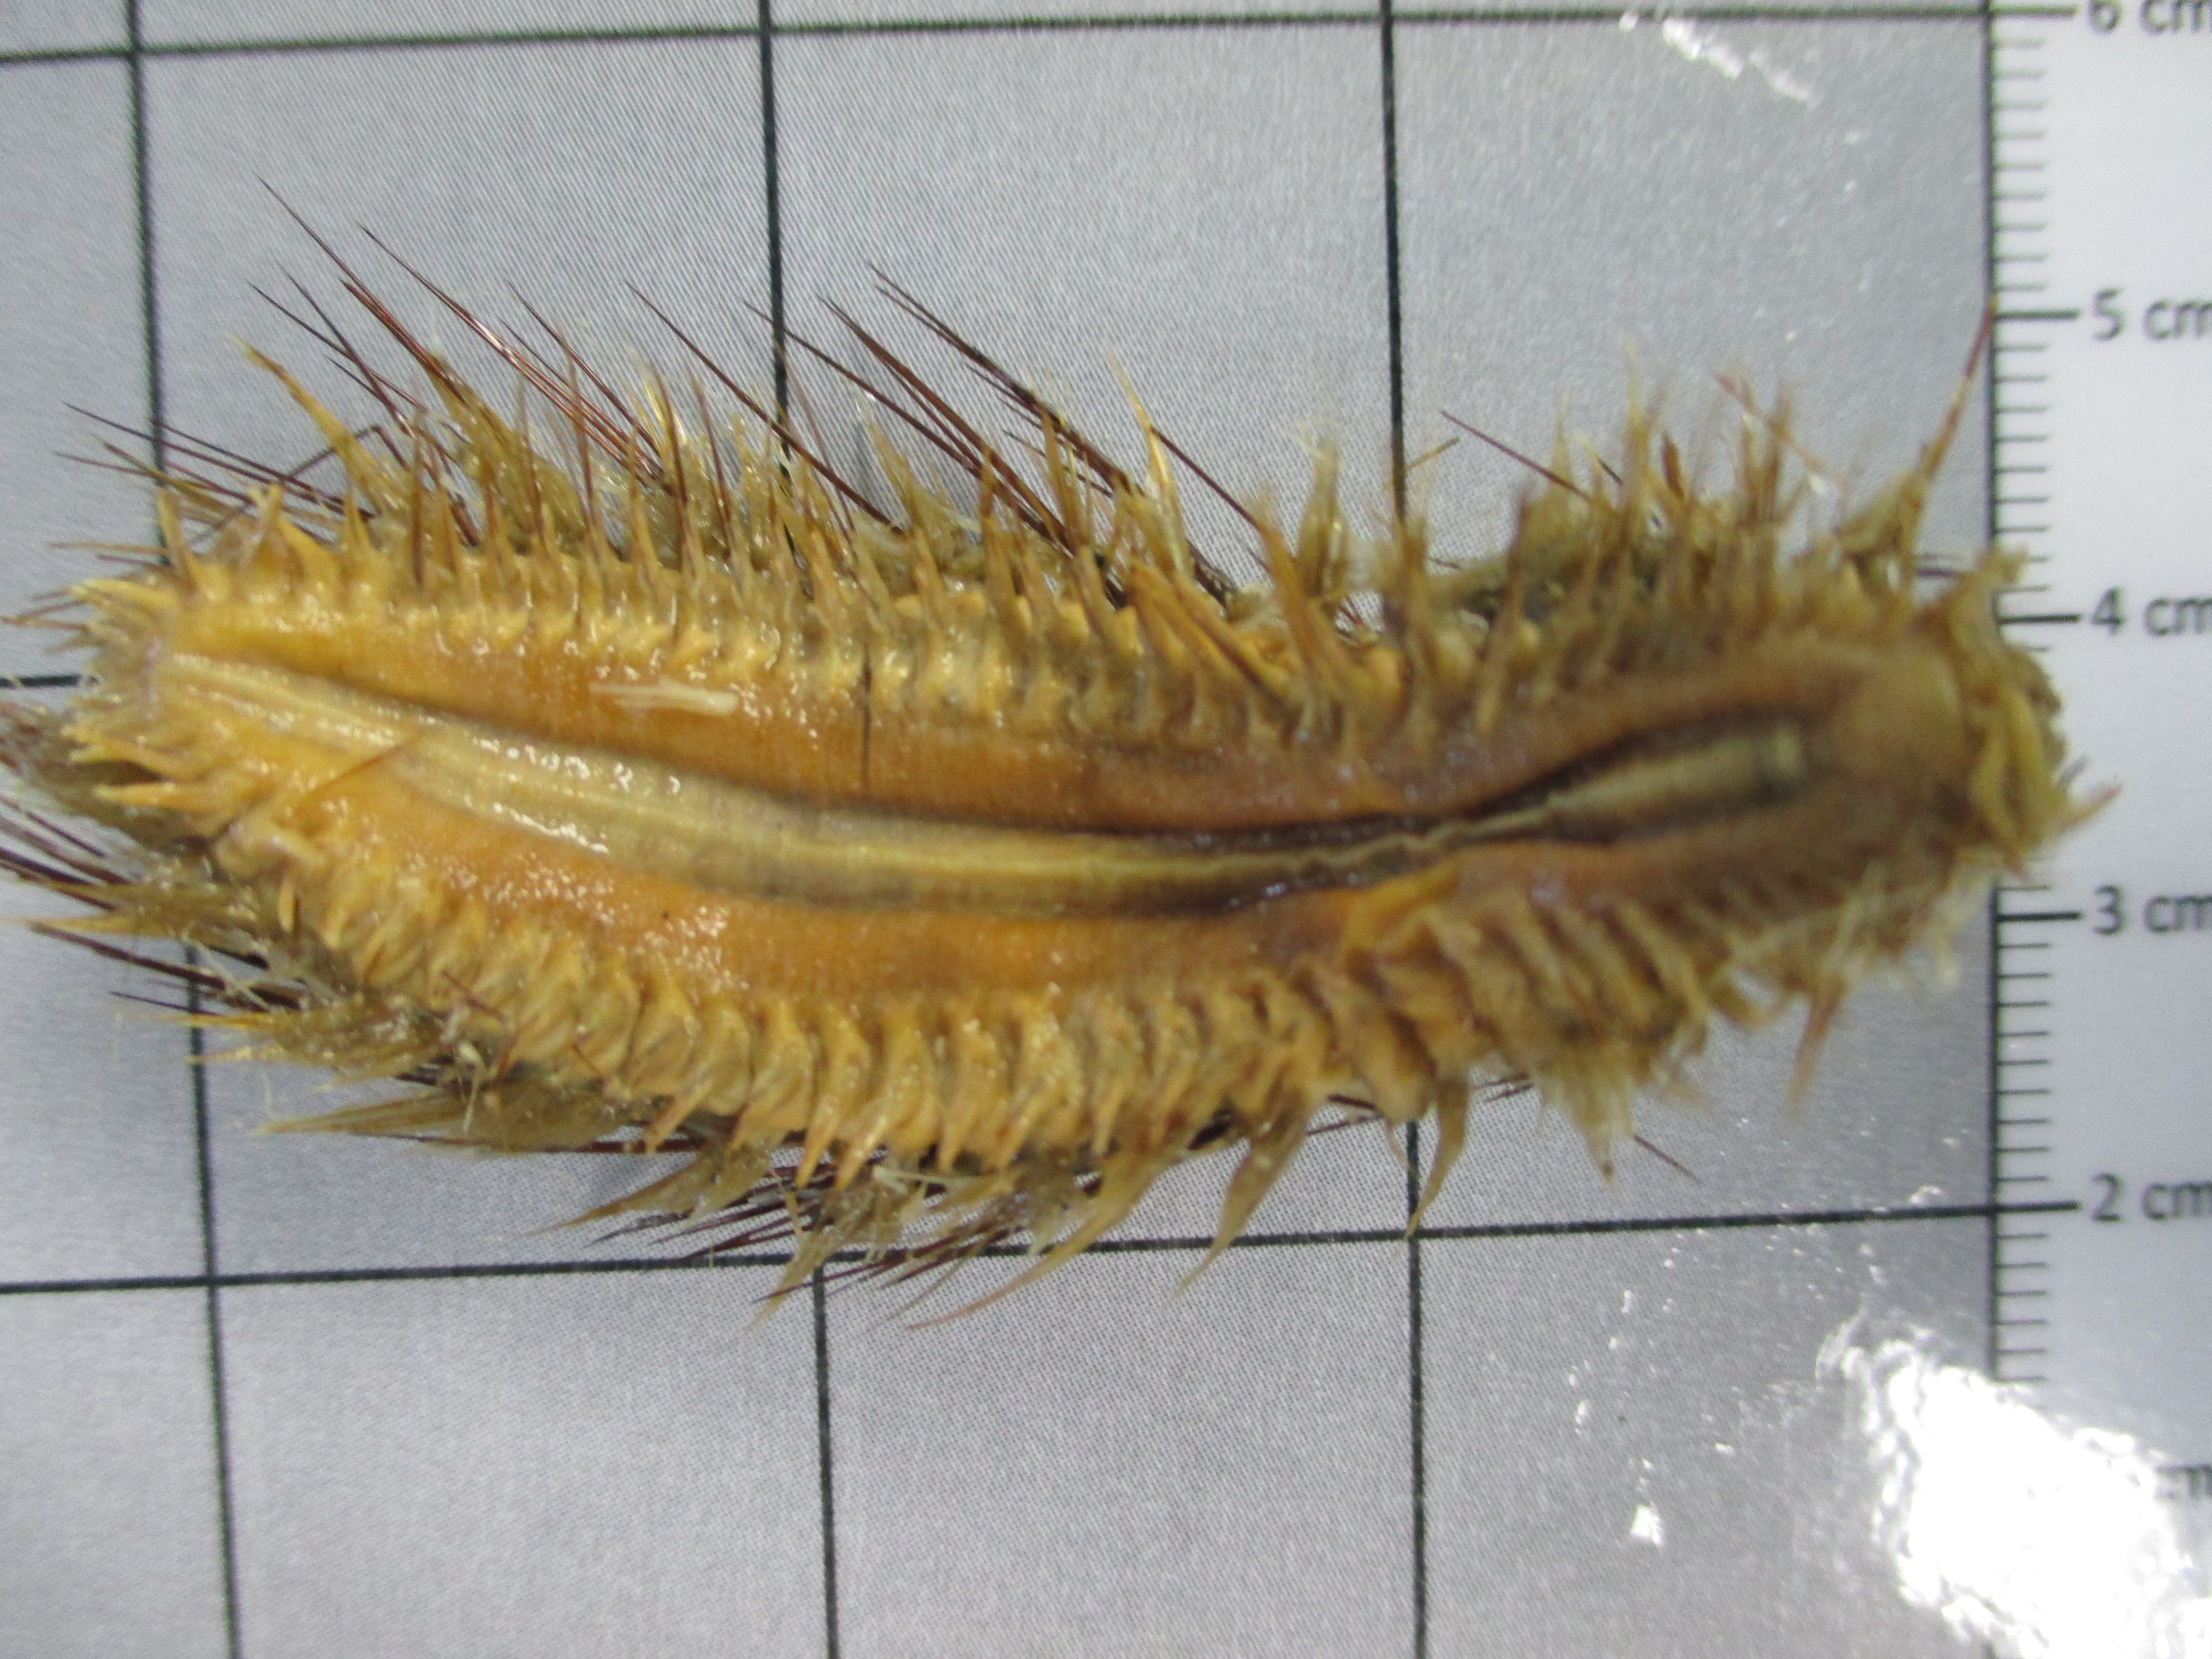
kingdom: Animalia
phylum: Annelida
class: Polychaeta
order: Phyllodocida
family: Aphroditidae
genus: Laetmonice
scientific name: Laetmonice benthaliana
